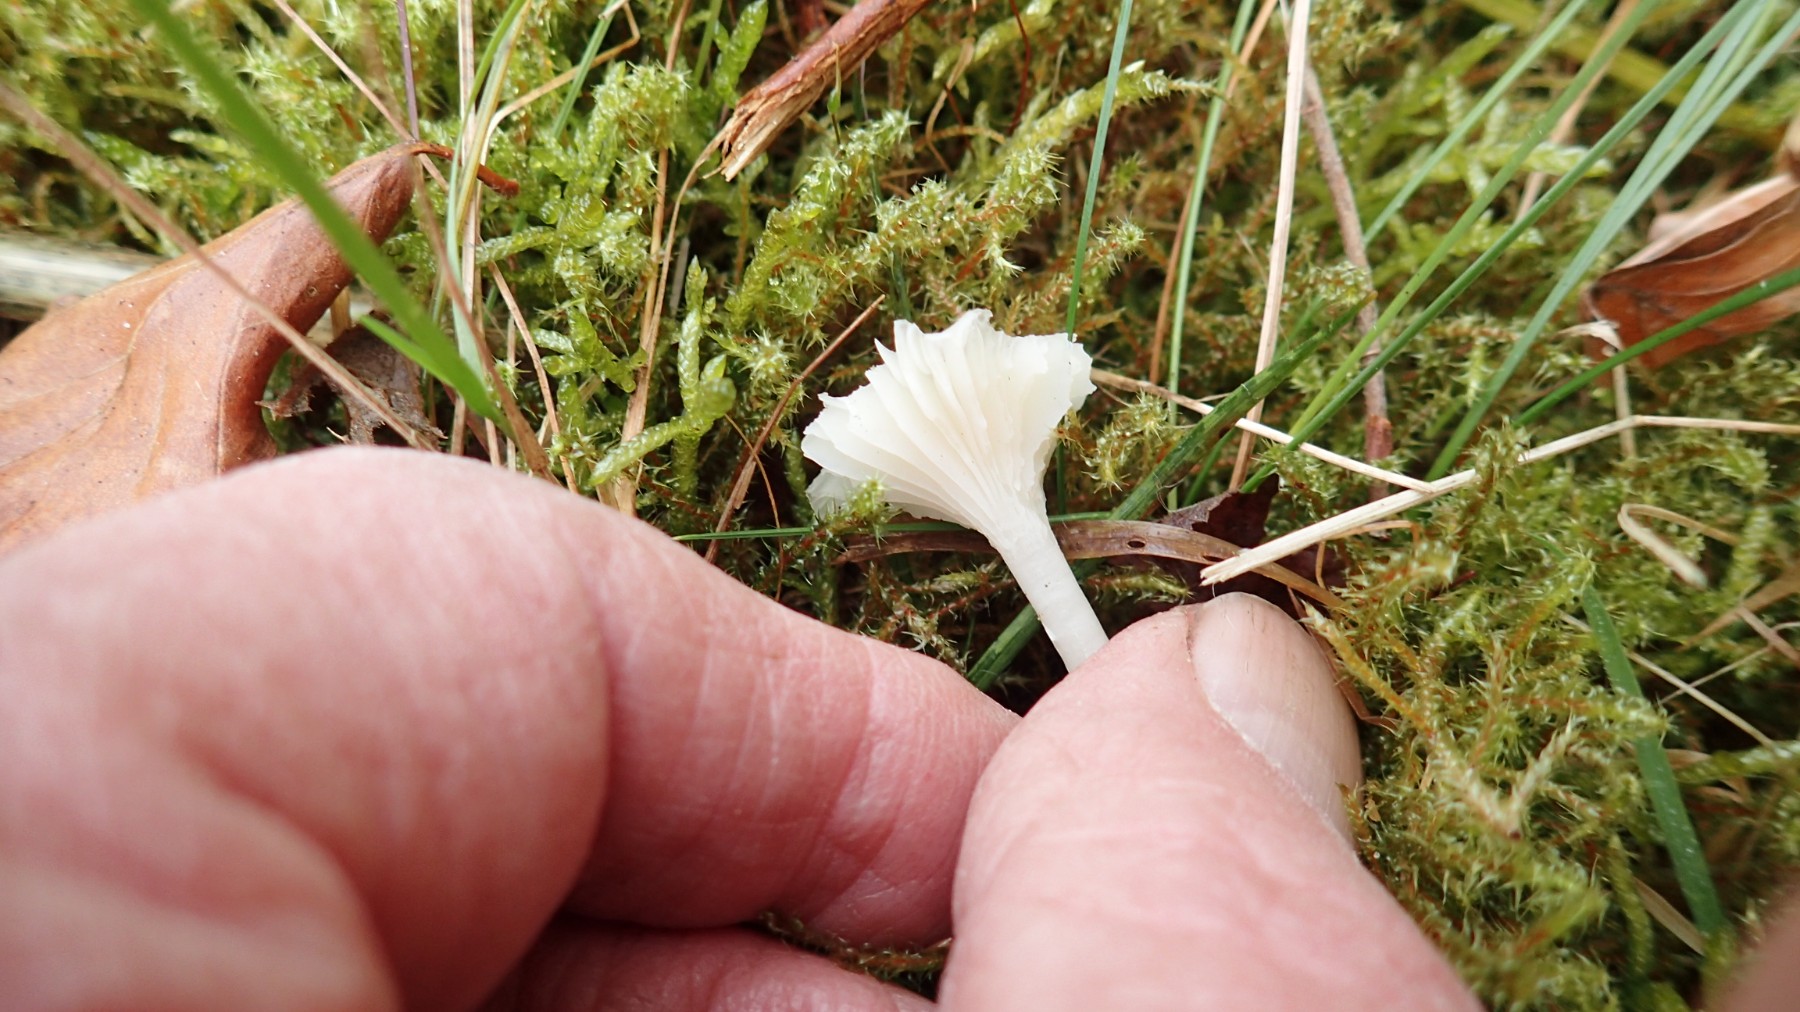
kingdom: Fungi
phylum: Basidiomycota
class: Agaricomycetes
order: Agaricales
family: Hygrophoraceae
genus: Cuphophyllus
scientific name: Cuphophyllus virgineus
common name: snehvid vokshat
